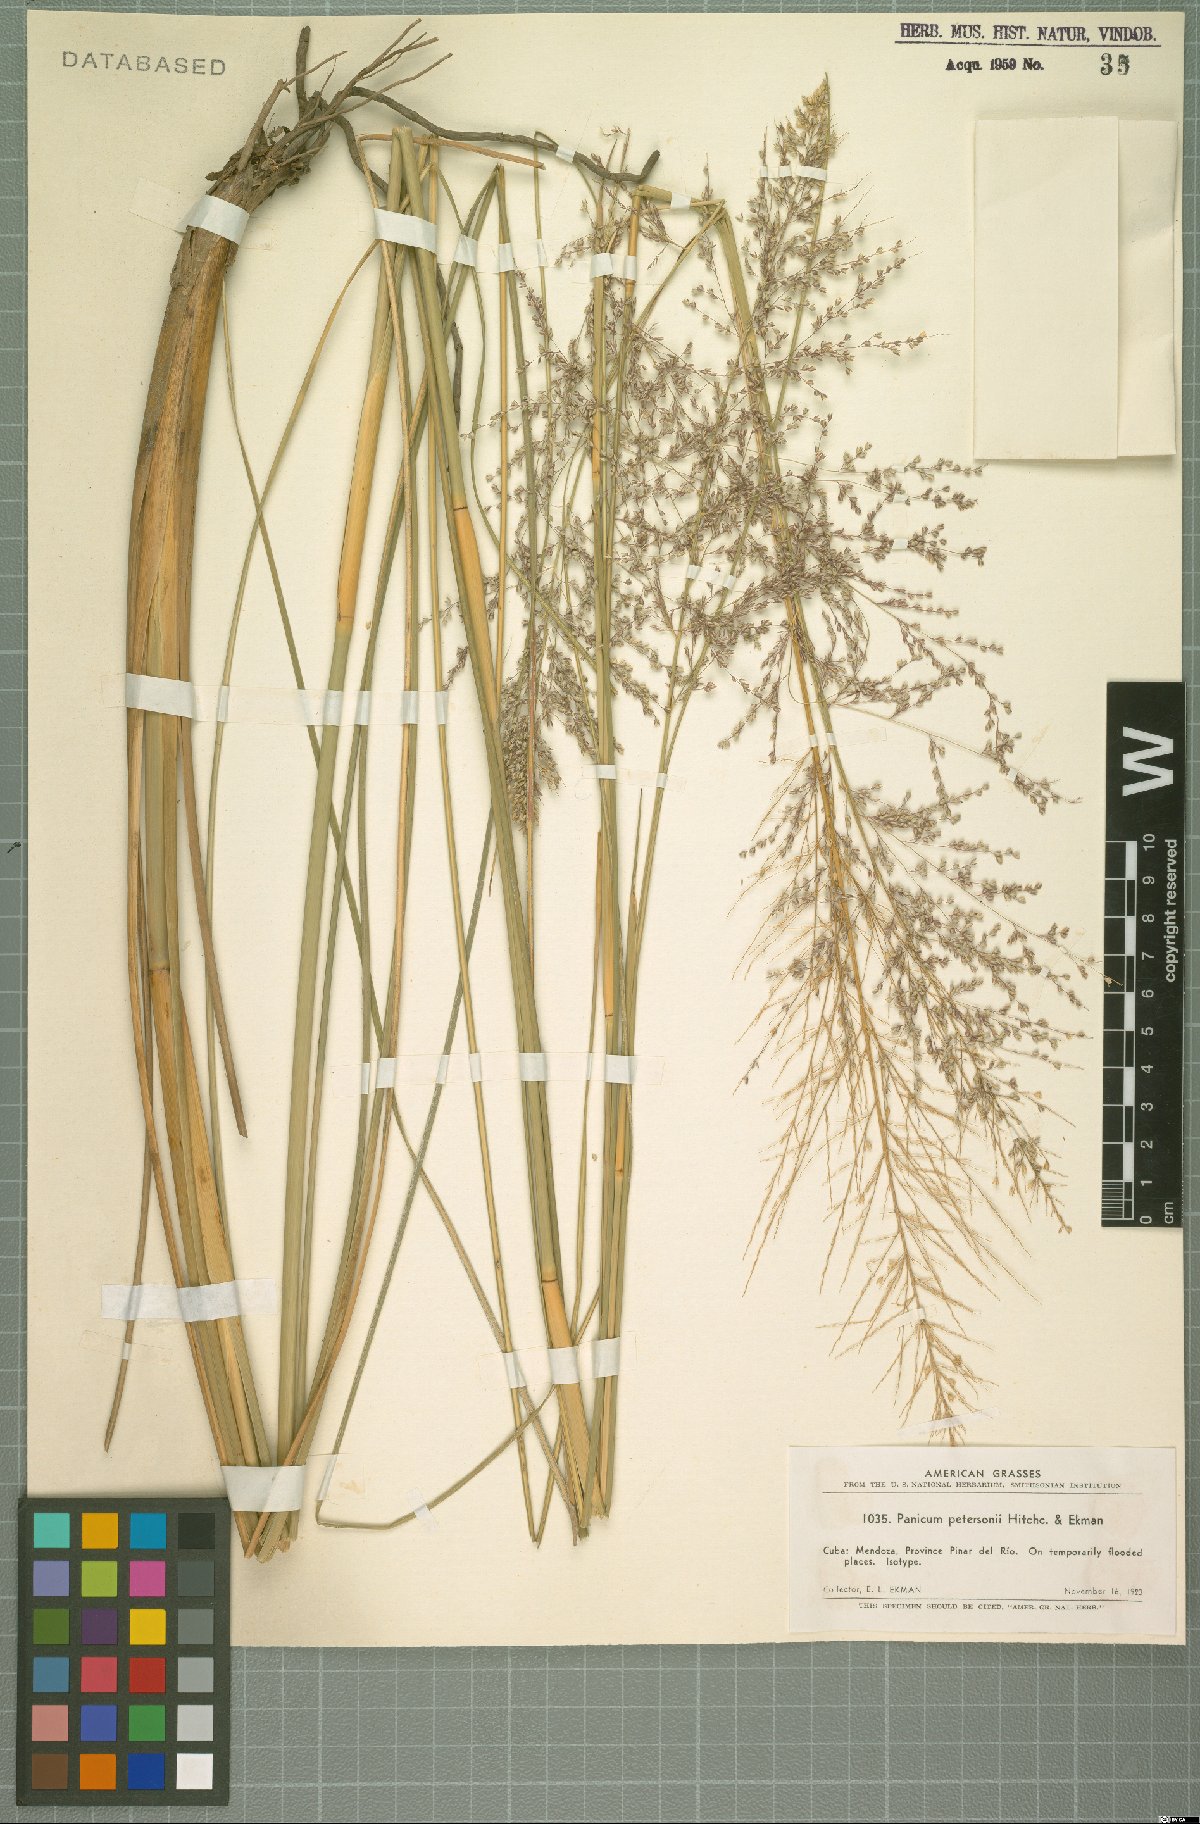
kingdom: Plantae
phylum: Tracheophyta
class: Liliopsida
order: Poales
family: Poaceae
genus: Coleataenia
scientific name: Coleataenia petersonii
